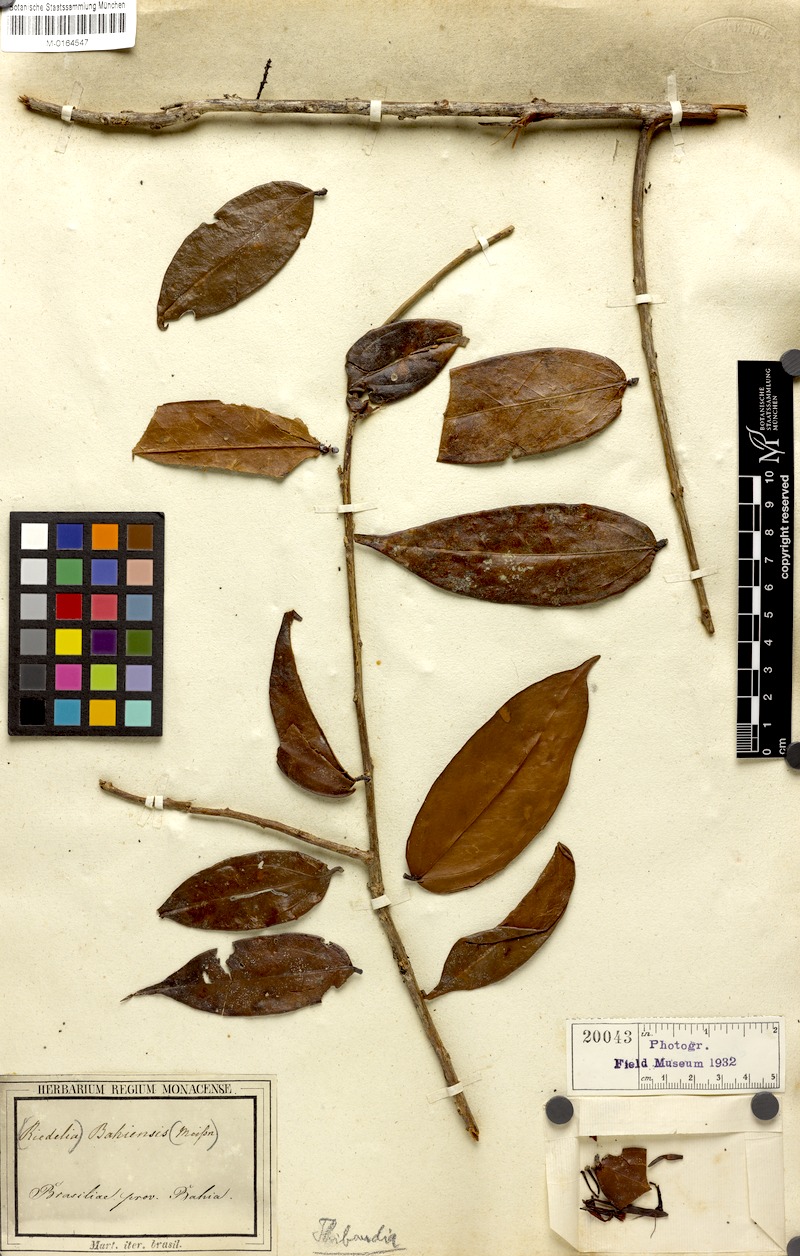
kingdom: Plantae
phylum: Tracheophyta
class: Magnoliopsida
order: Ericales
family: Ericaceae
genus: Satyria
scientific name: Satyria panurensis
